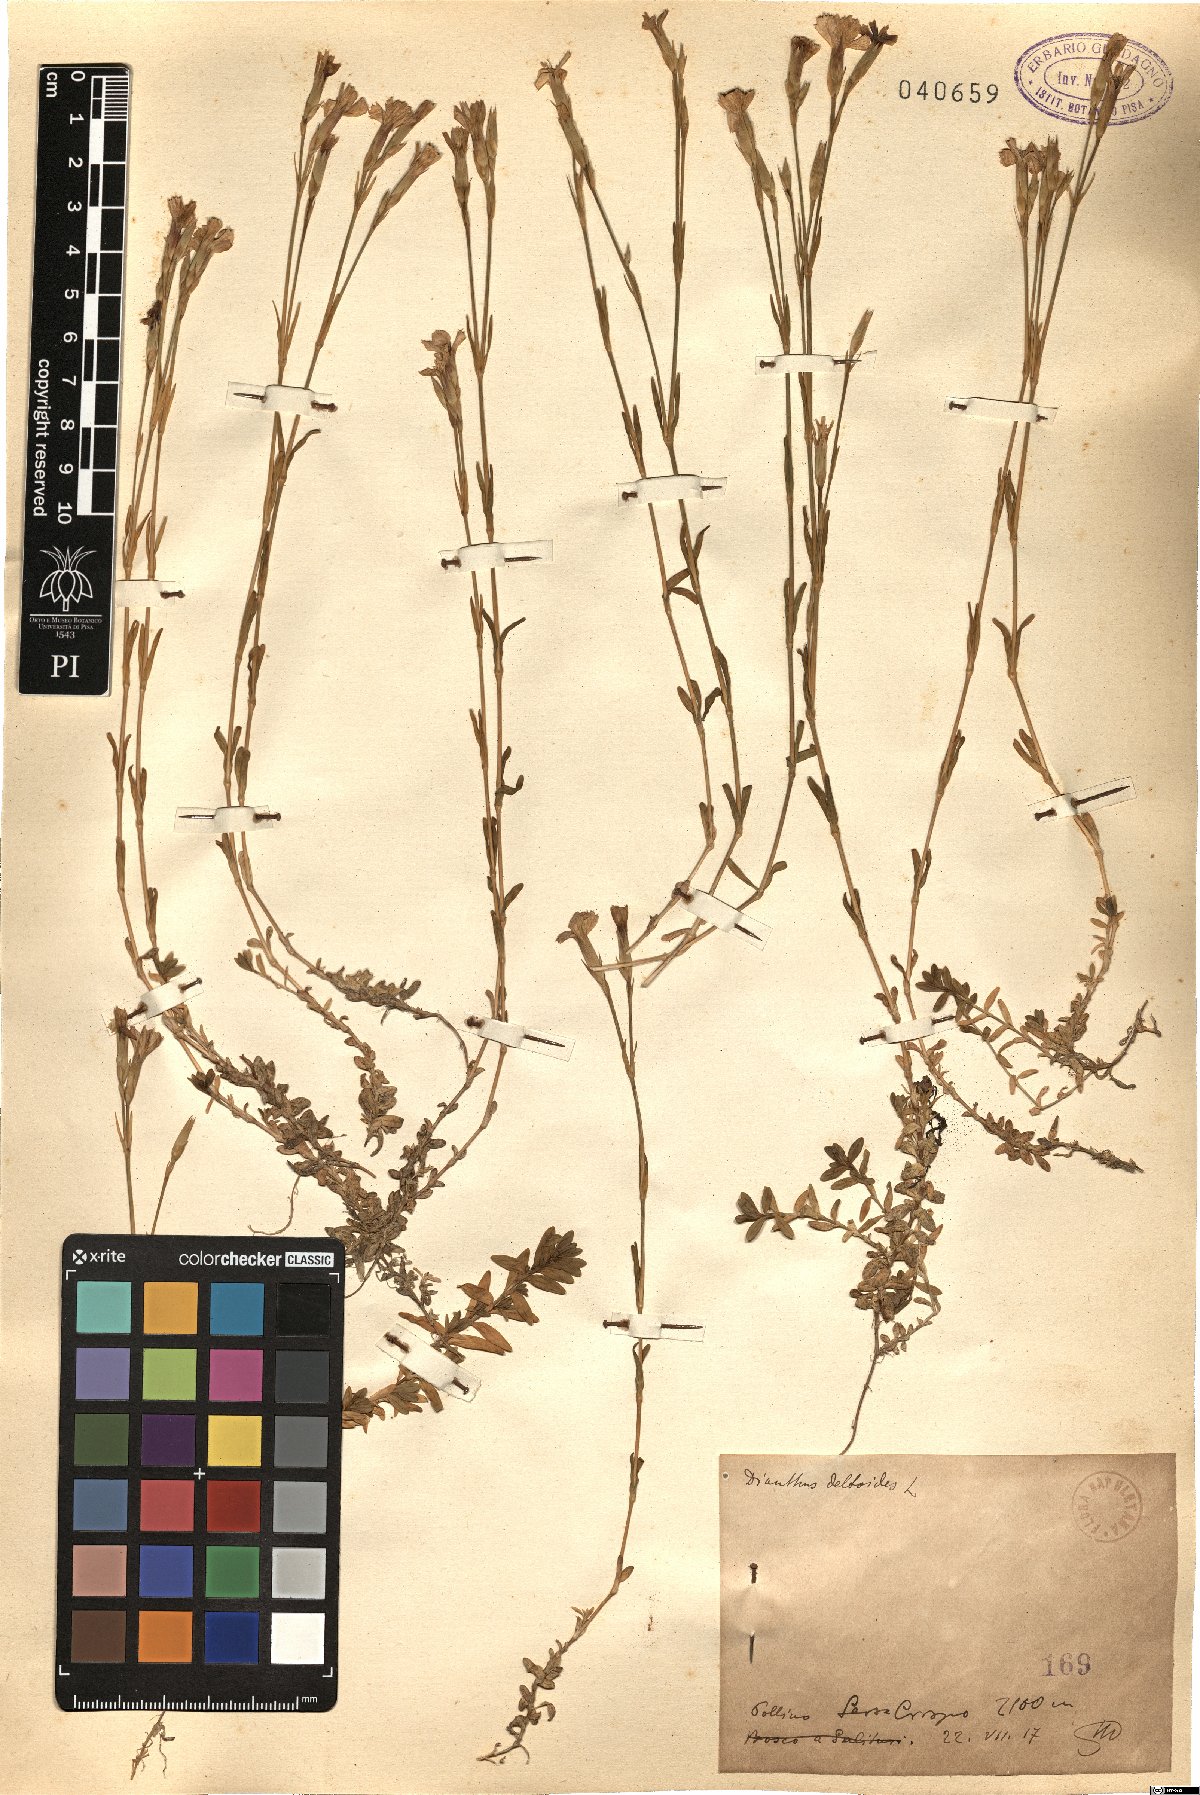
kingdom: Plantae
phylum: Tracheophyta
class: Magnoliopsida
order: Caryophyllales
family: Caryophyllaceae
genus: Dianthus
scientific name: Dianthus deltoides
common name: Maiden pink
